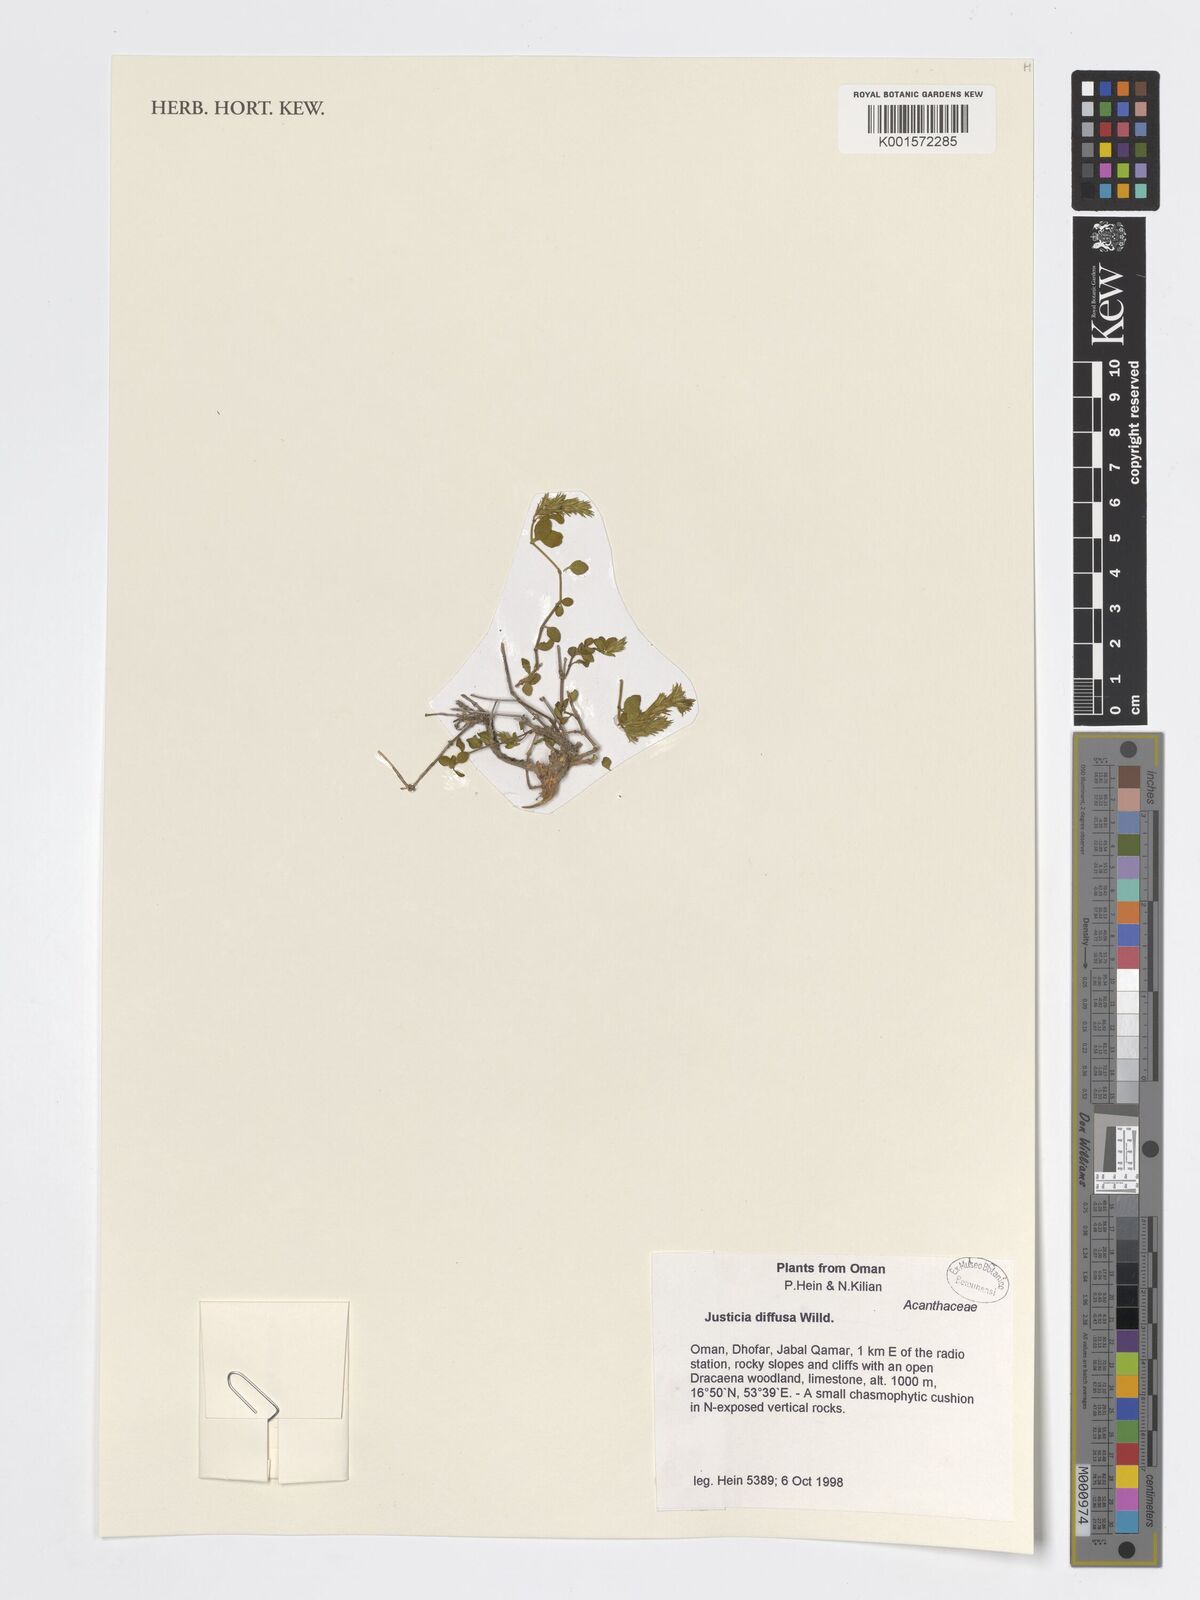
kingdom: Plantae
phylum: Tracheophyta
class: Magnoliopsida
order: Lamiales
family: Acanthaceae
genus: Rostellularia
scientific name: Rostellularia diffusa
